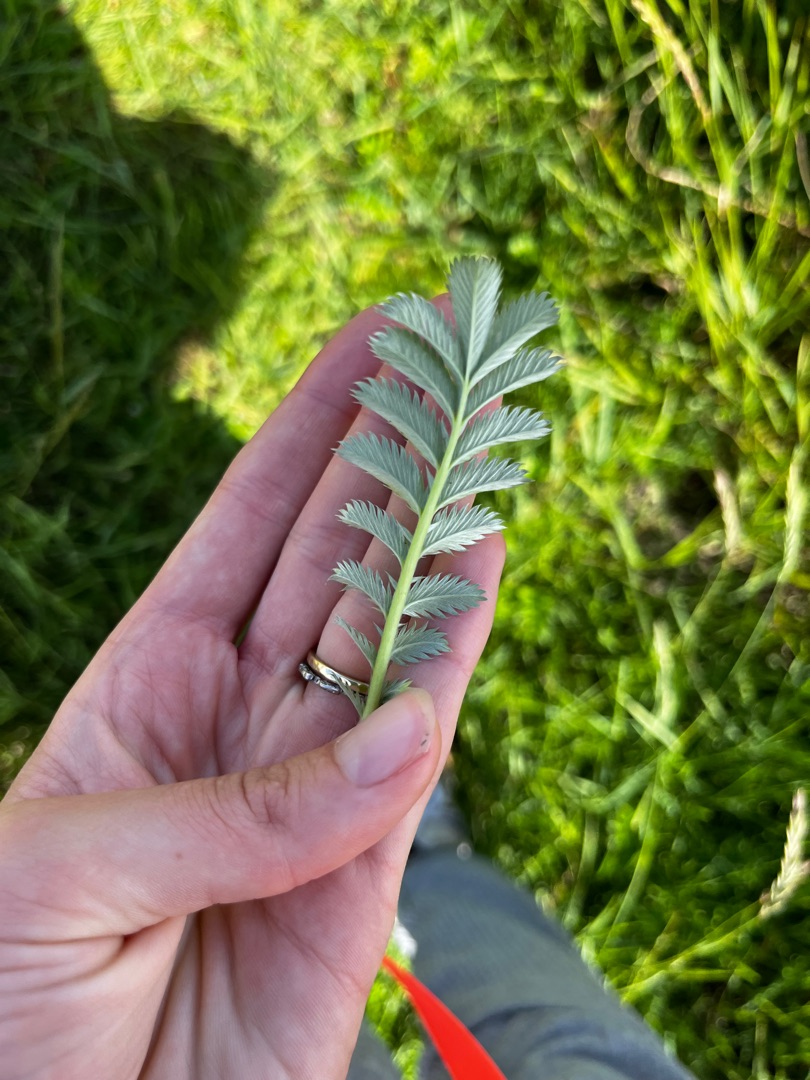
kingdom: Plantae
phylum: Tracheophyta
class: Magnoliopsida
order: Rosales
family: Rosaceae
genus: Argentina
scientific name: Argentina anserina
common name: Gåsepotentil
